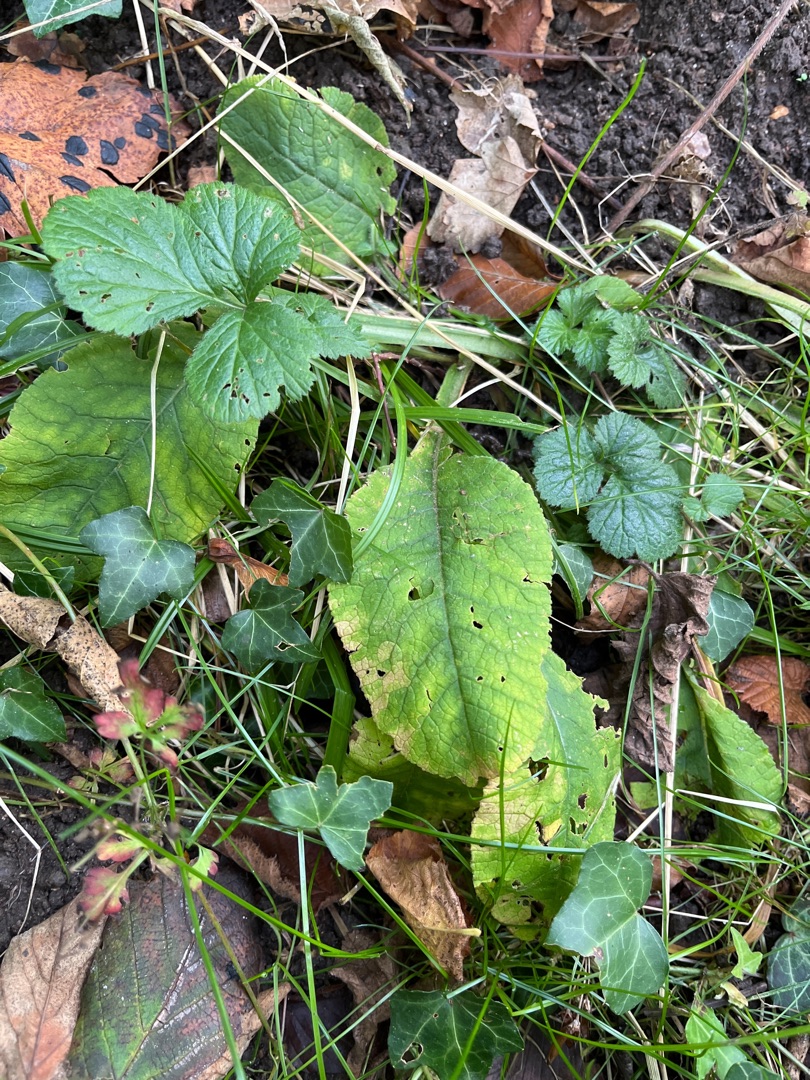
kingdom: Plantae
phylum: Tracheophyta
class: Magnoliopsida
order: Ericales
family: Primulaceae
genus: Primula
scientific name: Primula elatior
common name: Fladkravet kodriver
